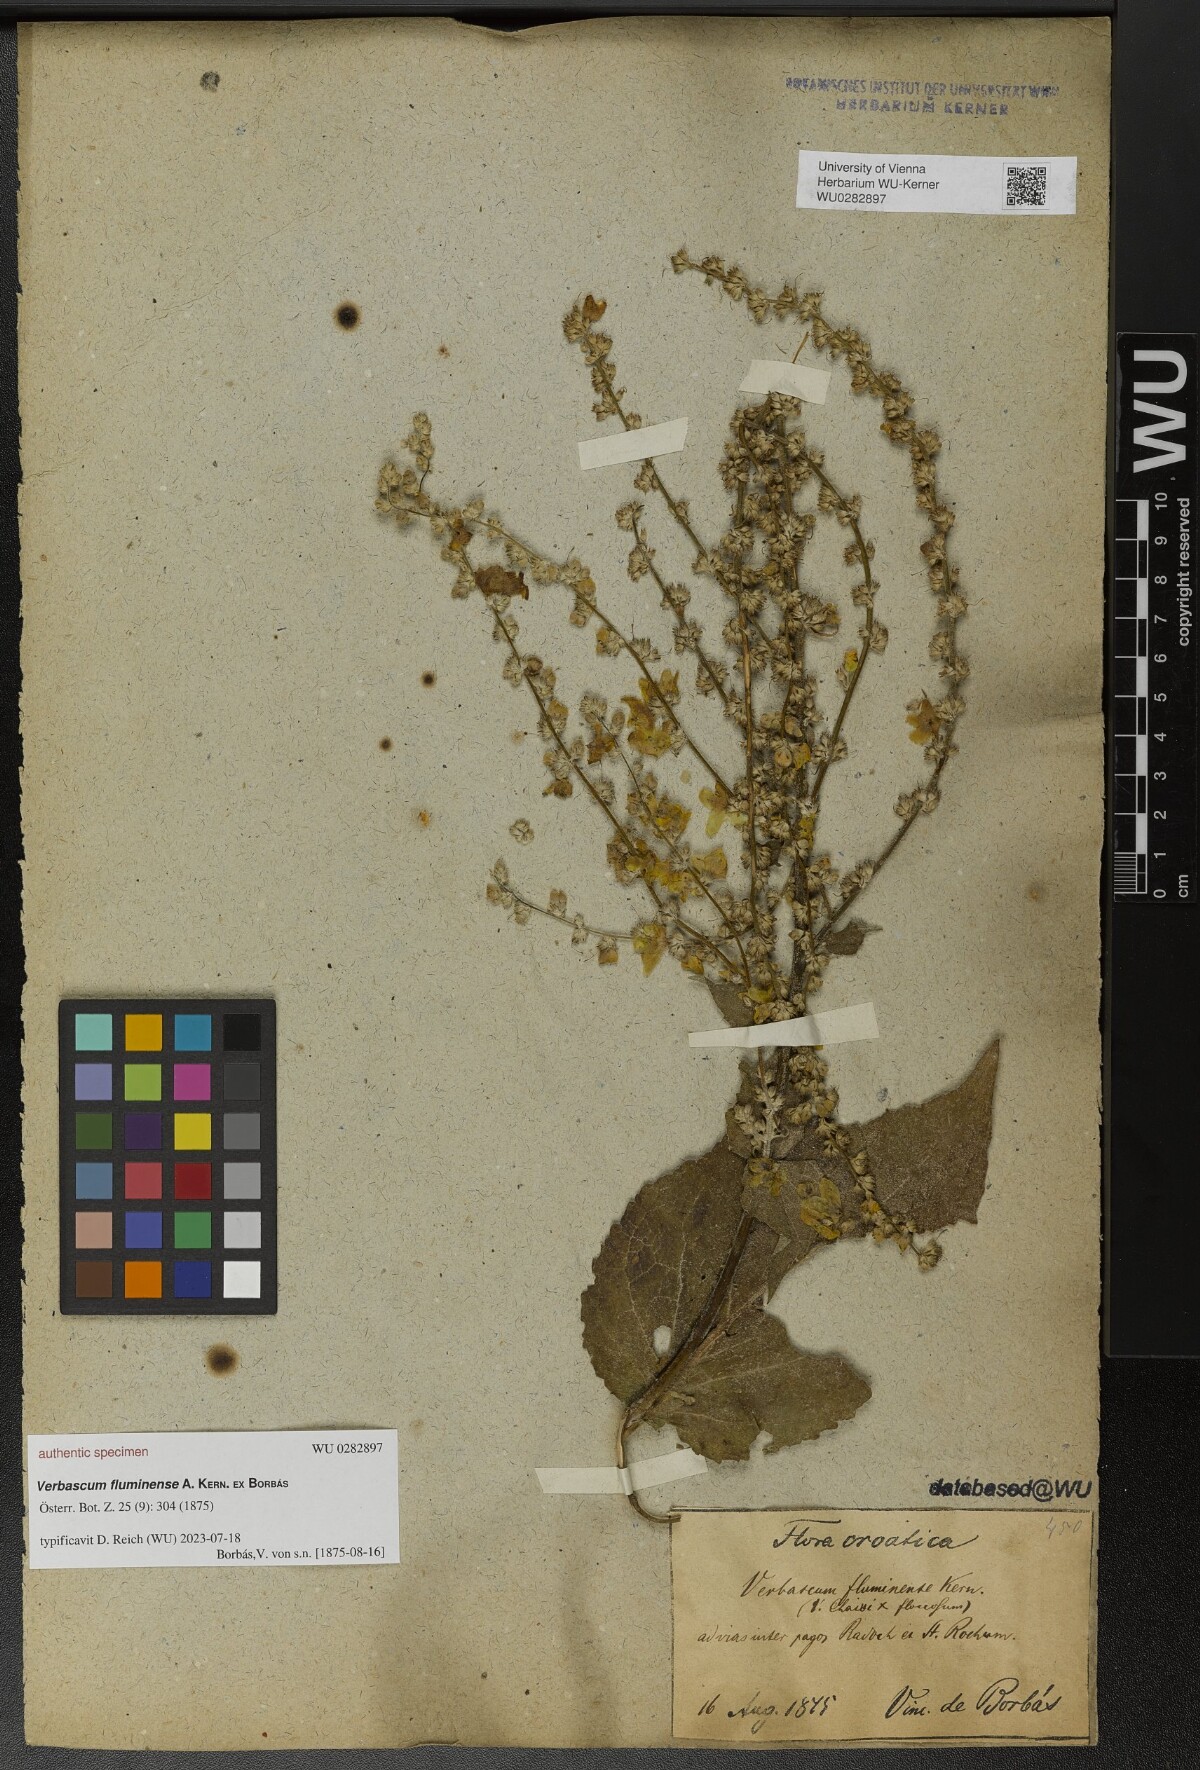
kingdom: Plantae
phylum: Tracheophyta
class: Magnoliopsida
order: Lamiales
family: Scrophulariaceae
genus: Verbascum
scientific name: Verbascum fluminense
